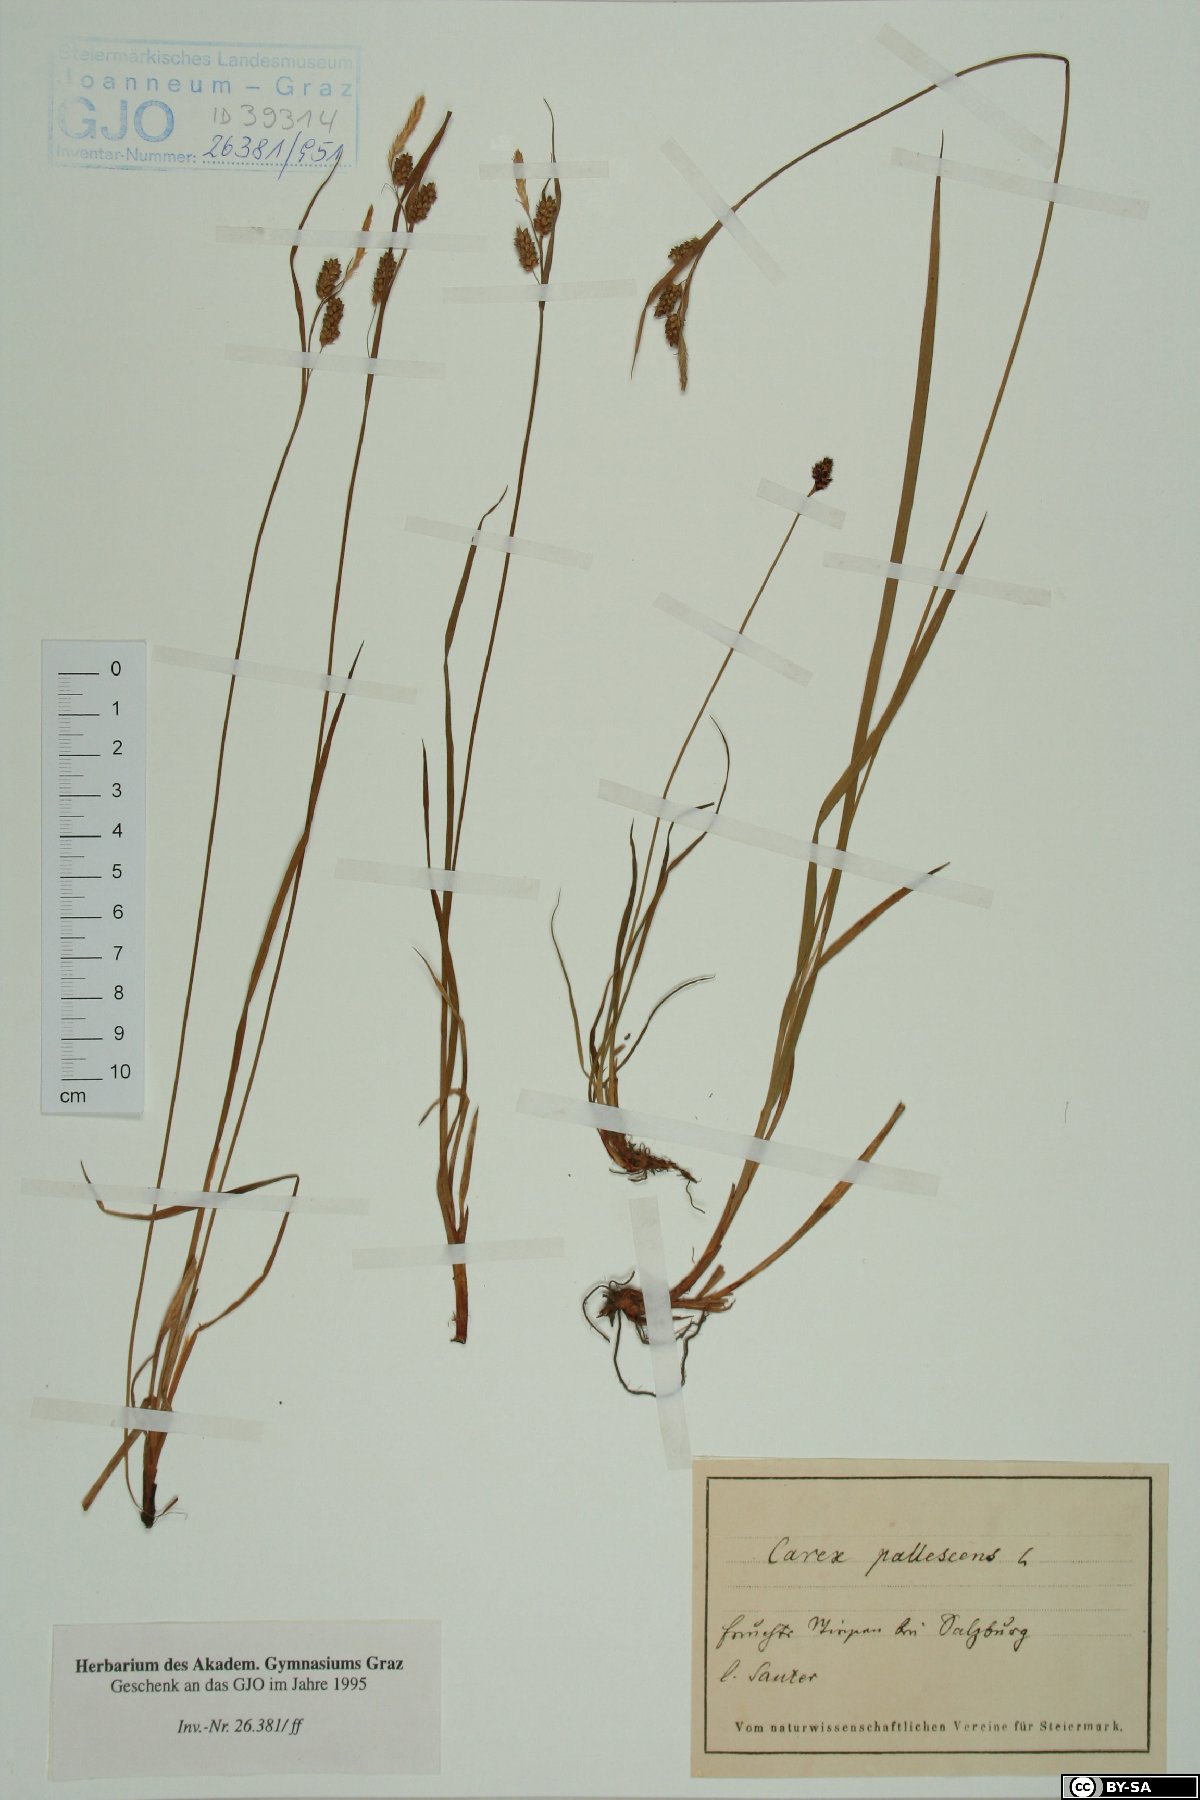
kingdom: Plantae
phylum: Tracheophyta
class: Liliopsida
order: Poales
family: Cyperaceae
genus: Carex
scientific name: Carex pallescens
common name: Pale sedge
